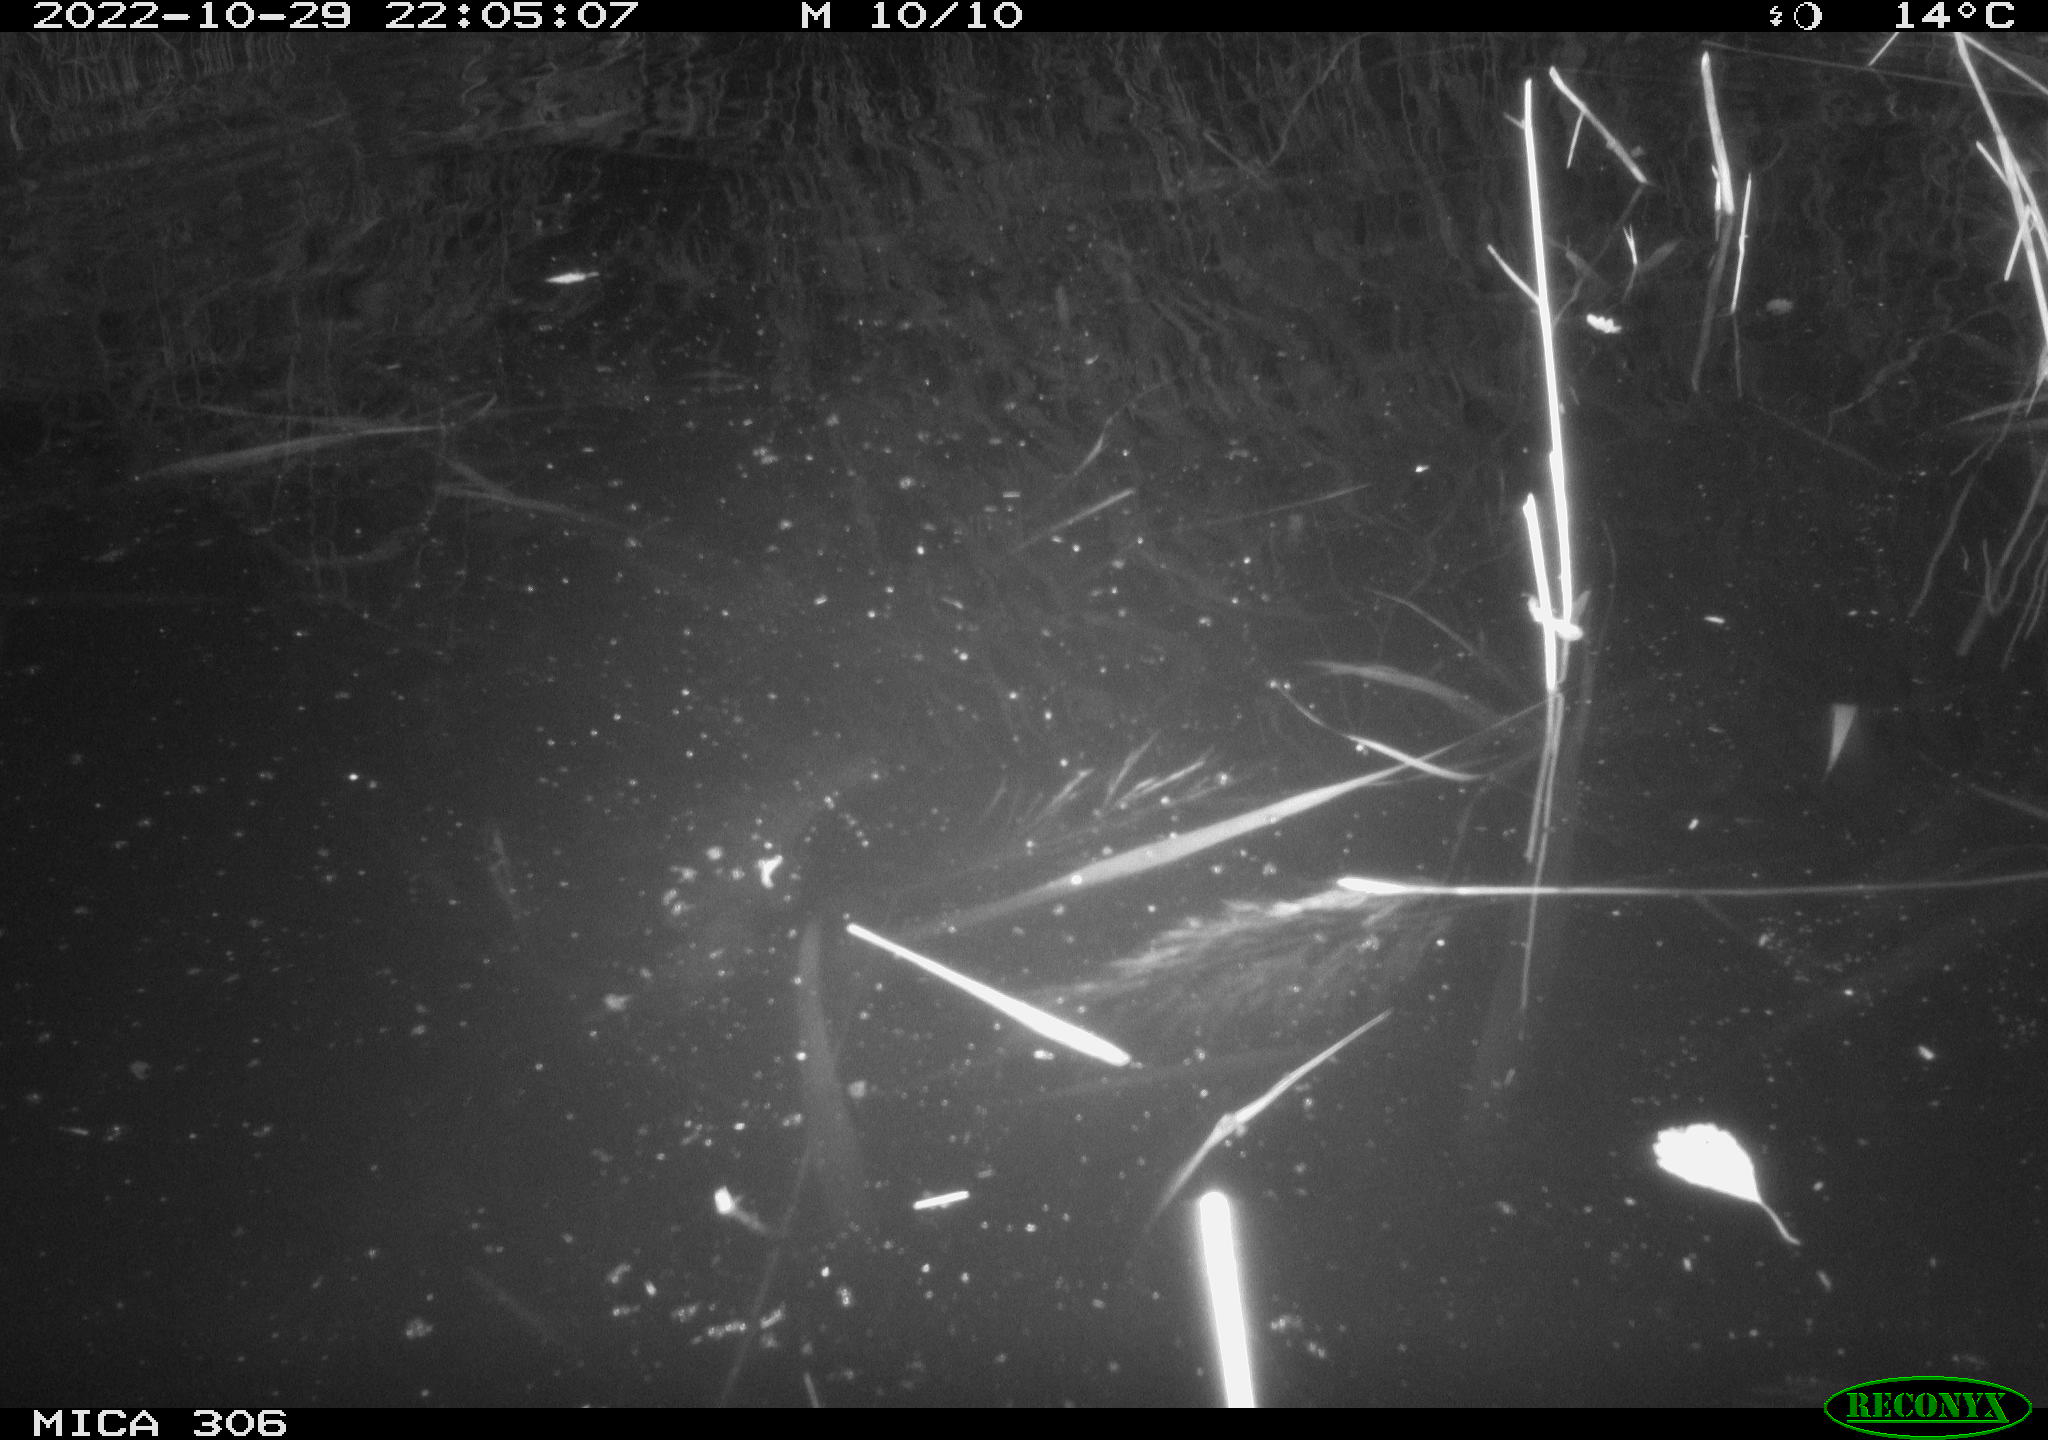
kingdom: Animalia
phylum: Chordata
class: Mammalia
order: Rodentia
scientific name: Rodentia
